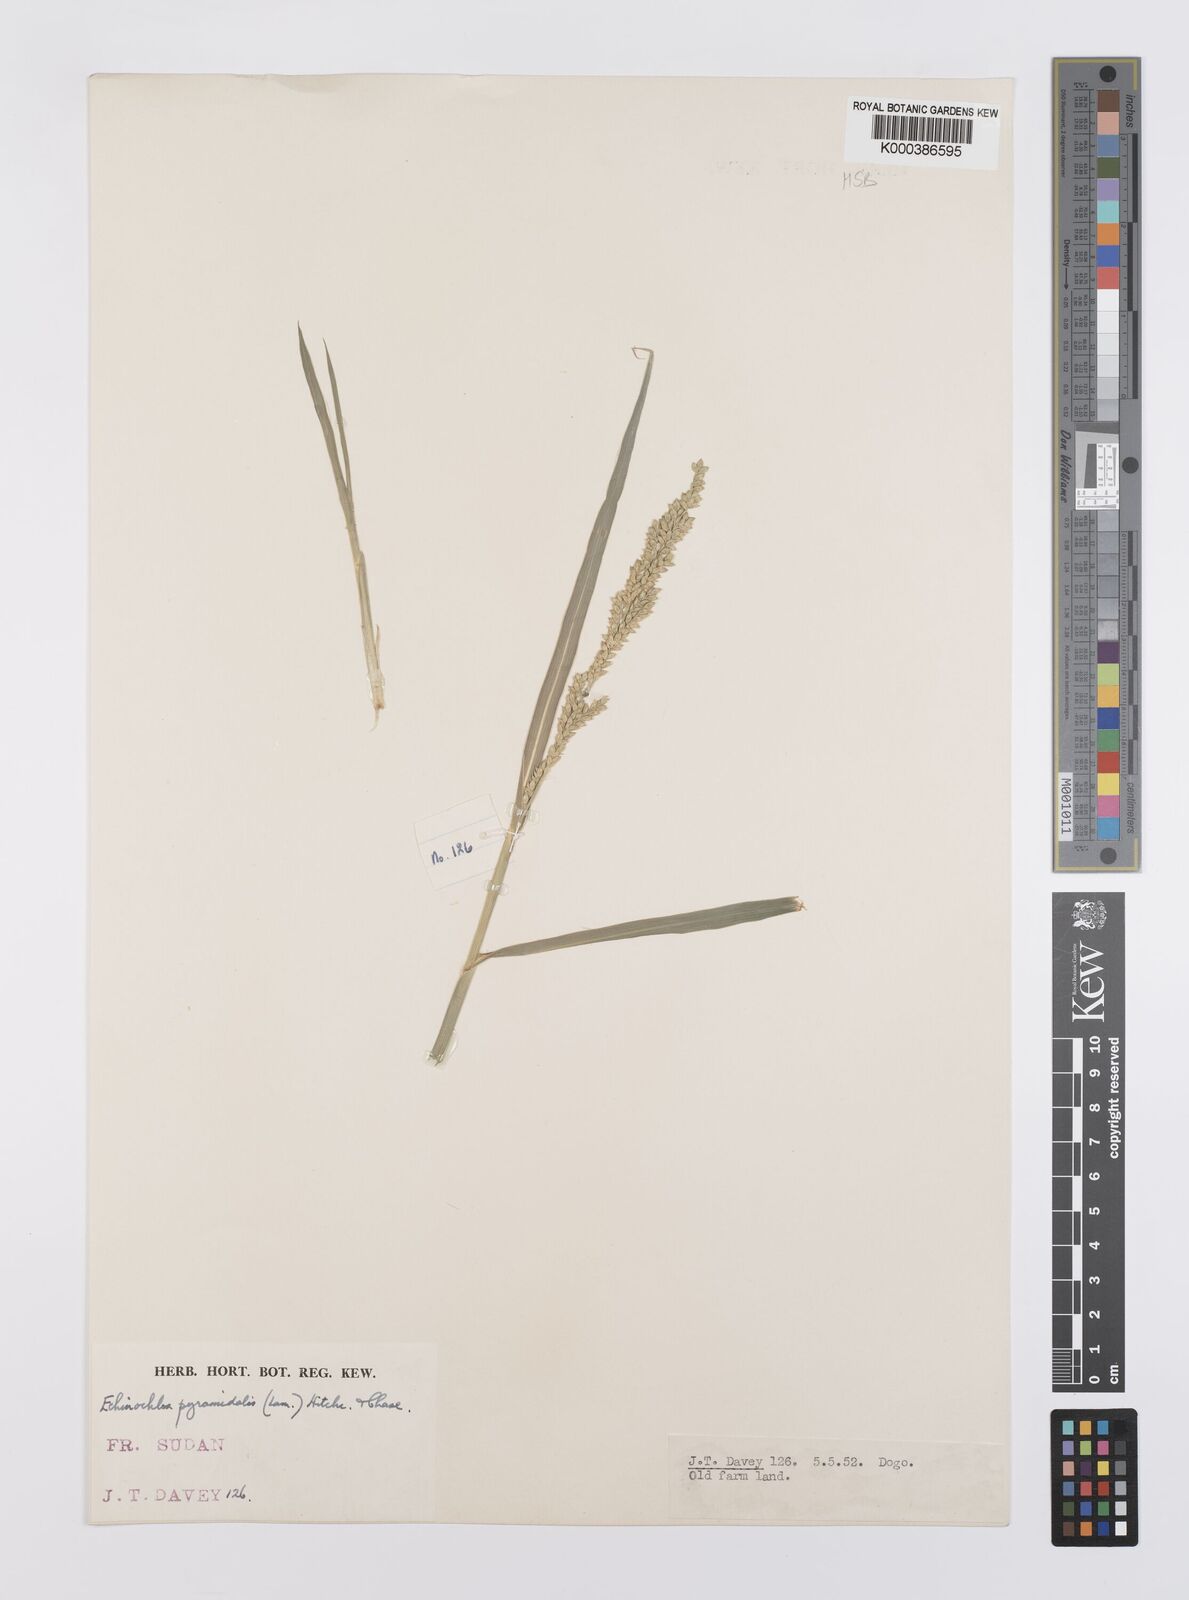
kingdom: Plantae
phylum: Tracheophyta
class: Liliopsida
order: Poales
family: Poaceae
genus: Echinochloa
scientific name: Echinochloa pyramidalis
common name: Antelope grass
